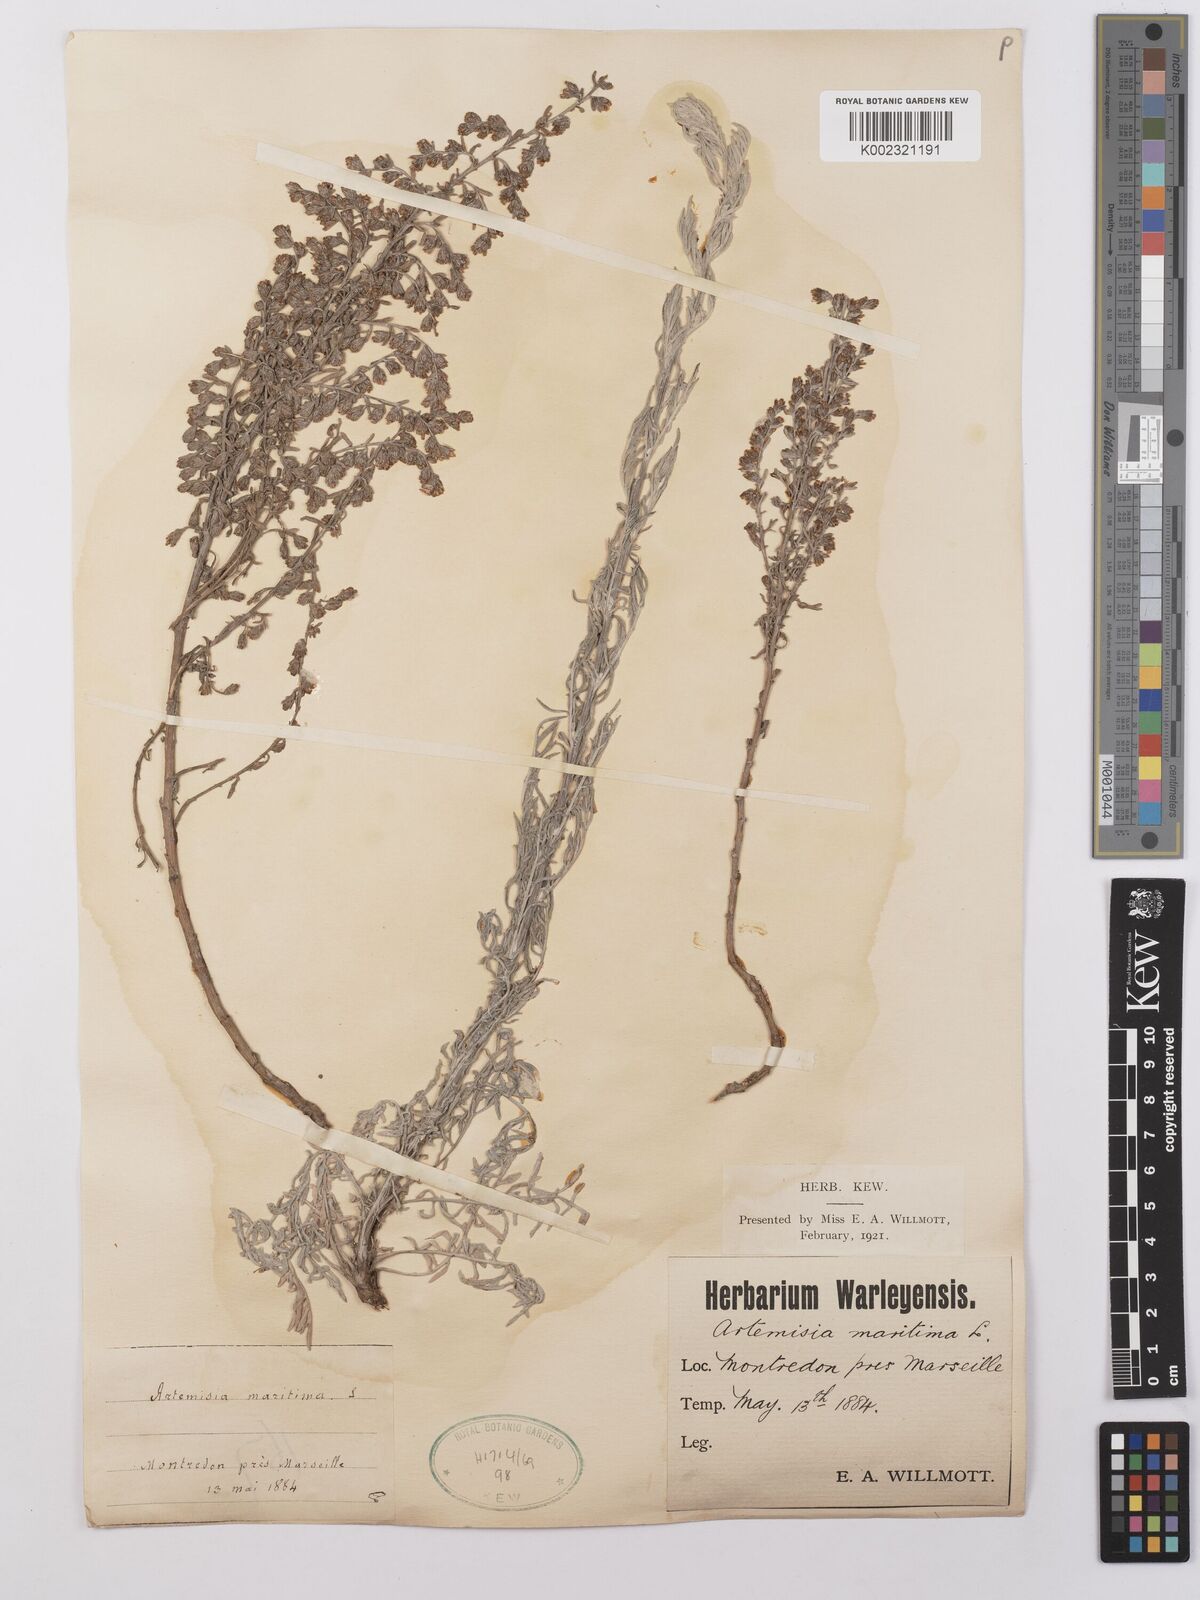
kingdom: Plantae
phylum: Tracheophyta
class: Magnoliopsida
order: Asterales
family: Asteraceae
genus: Artemisia
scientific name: Artemisia maritima
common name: Wormseed
